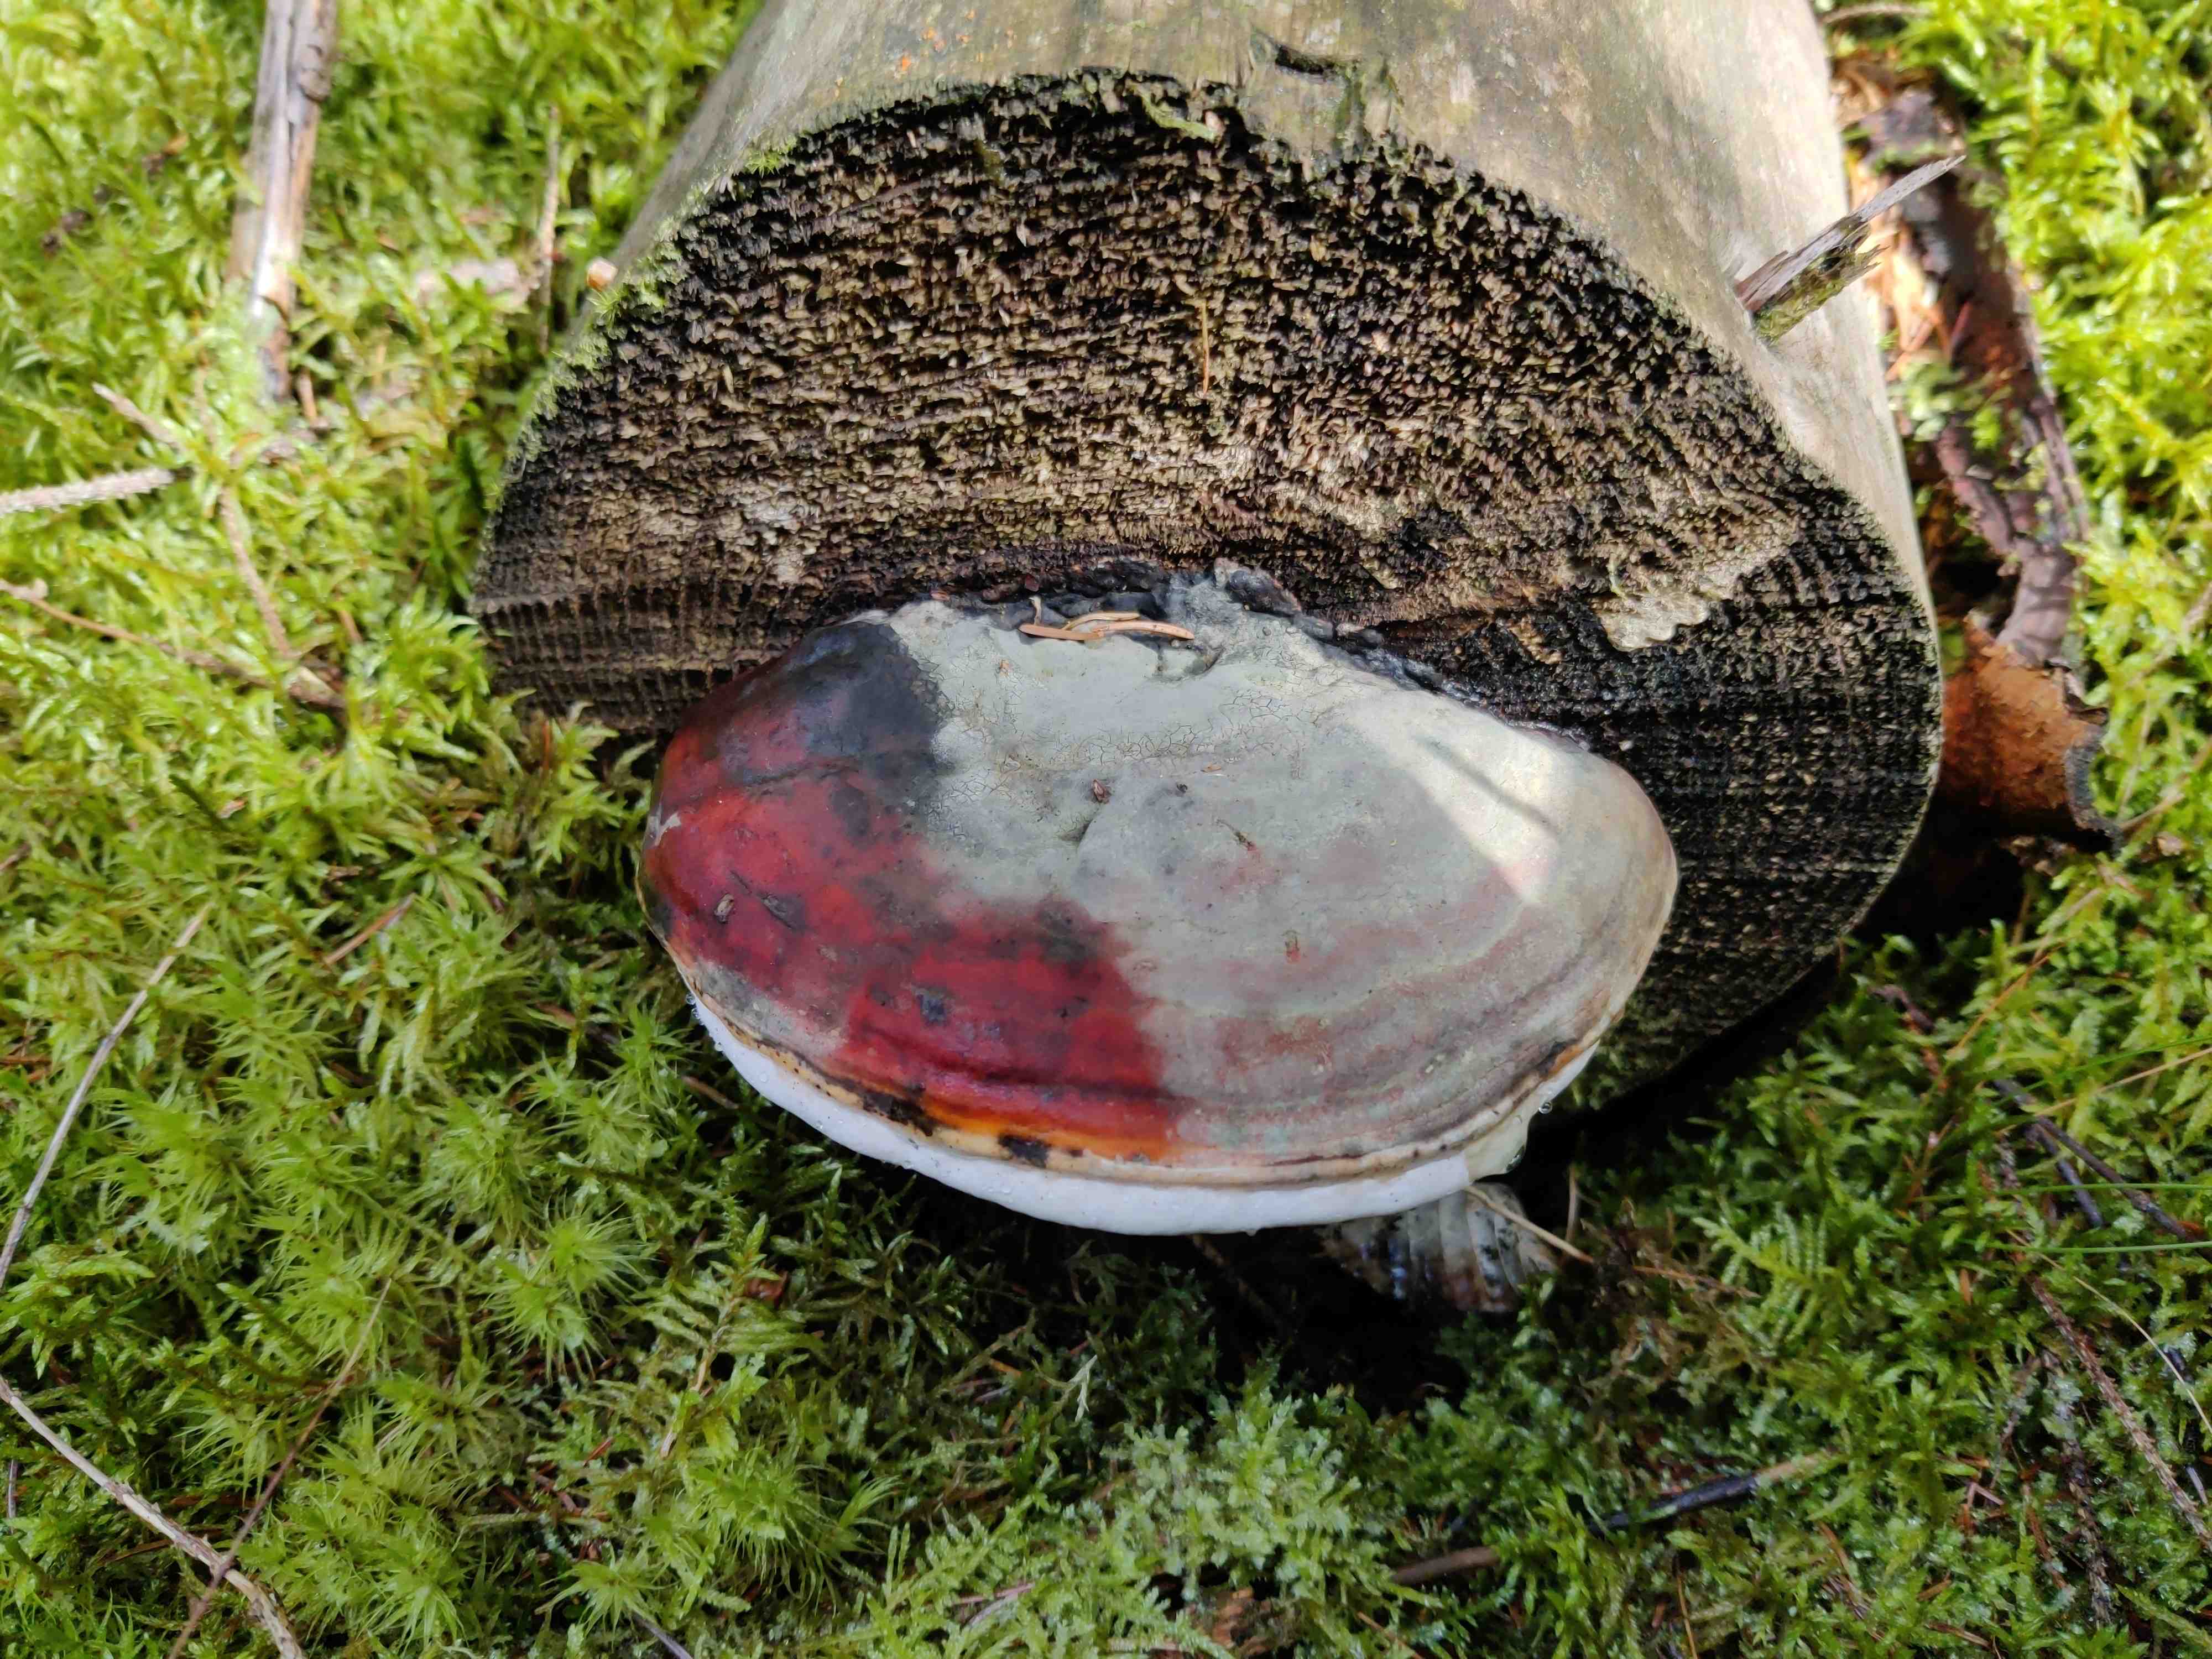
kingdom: Fungi
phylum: Basidiomycota
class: Agaricomycetes
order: Polyporales
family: Fomitopsidaceae
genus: Fomitopsis
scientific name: Fomitopsis pinicola
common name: randbæltet hovporesvamp
